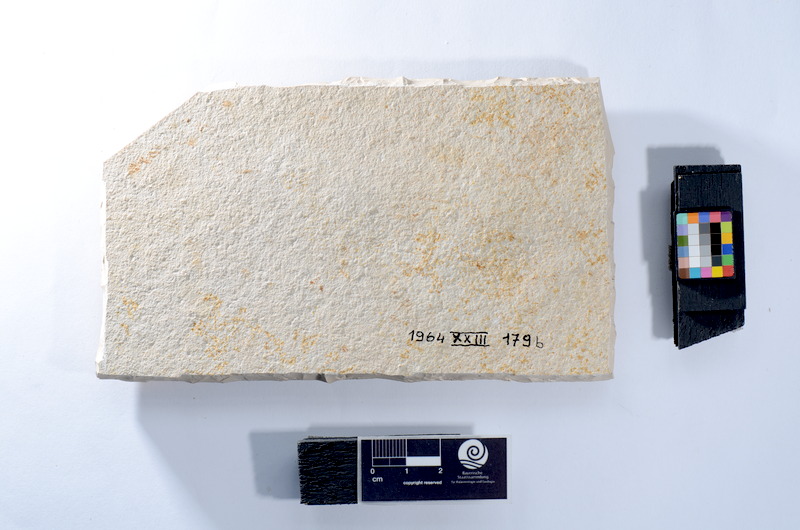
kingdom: Animalia
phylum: Chordata
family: Ankylophoridae
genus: Siemensichthys
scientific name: Siemensichthys macrocephalus
